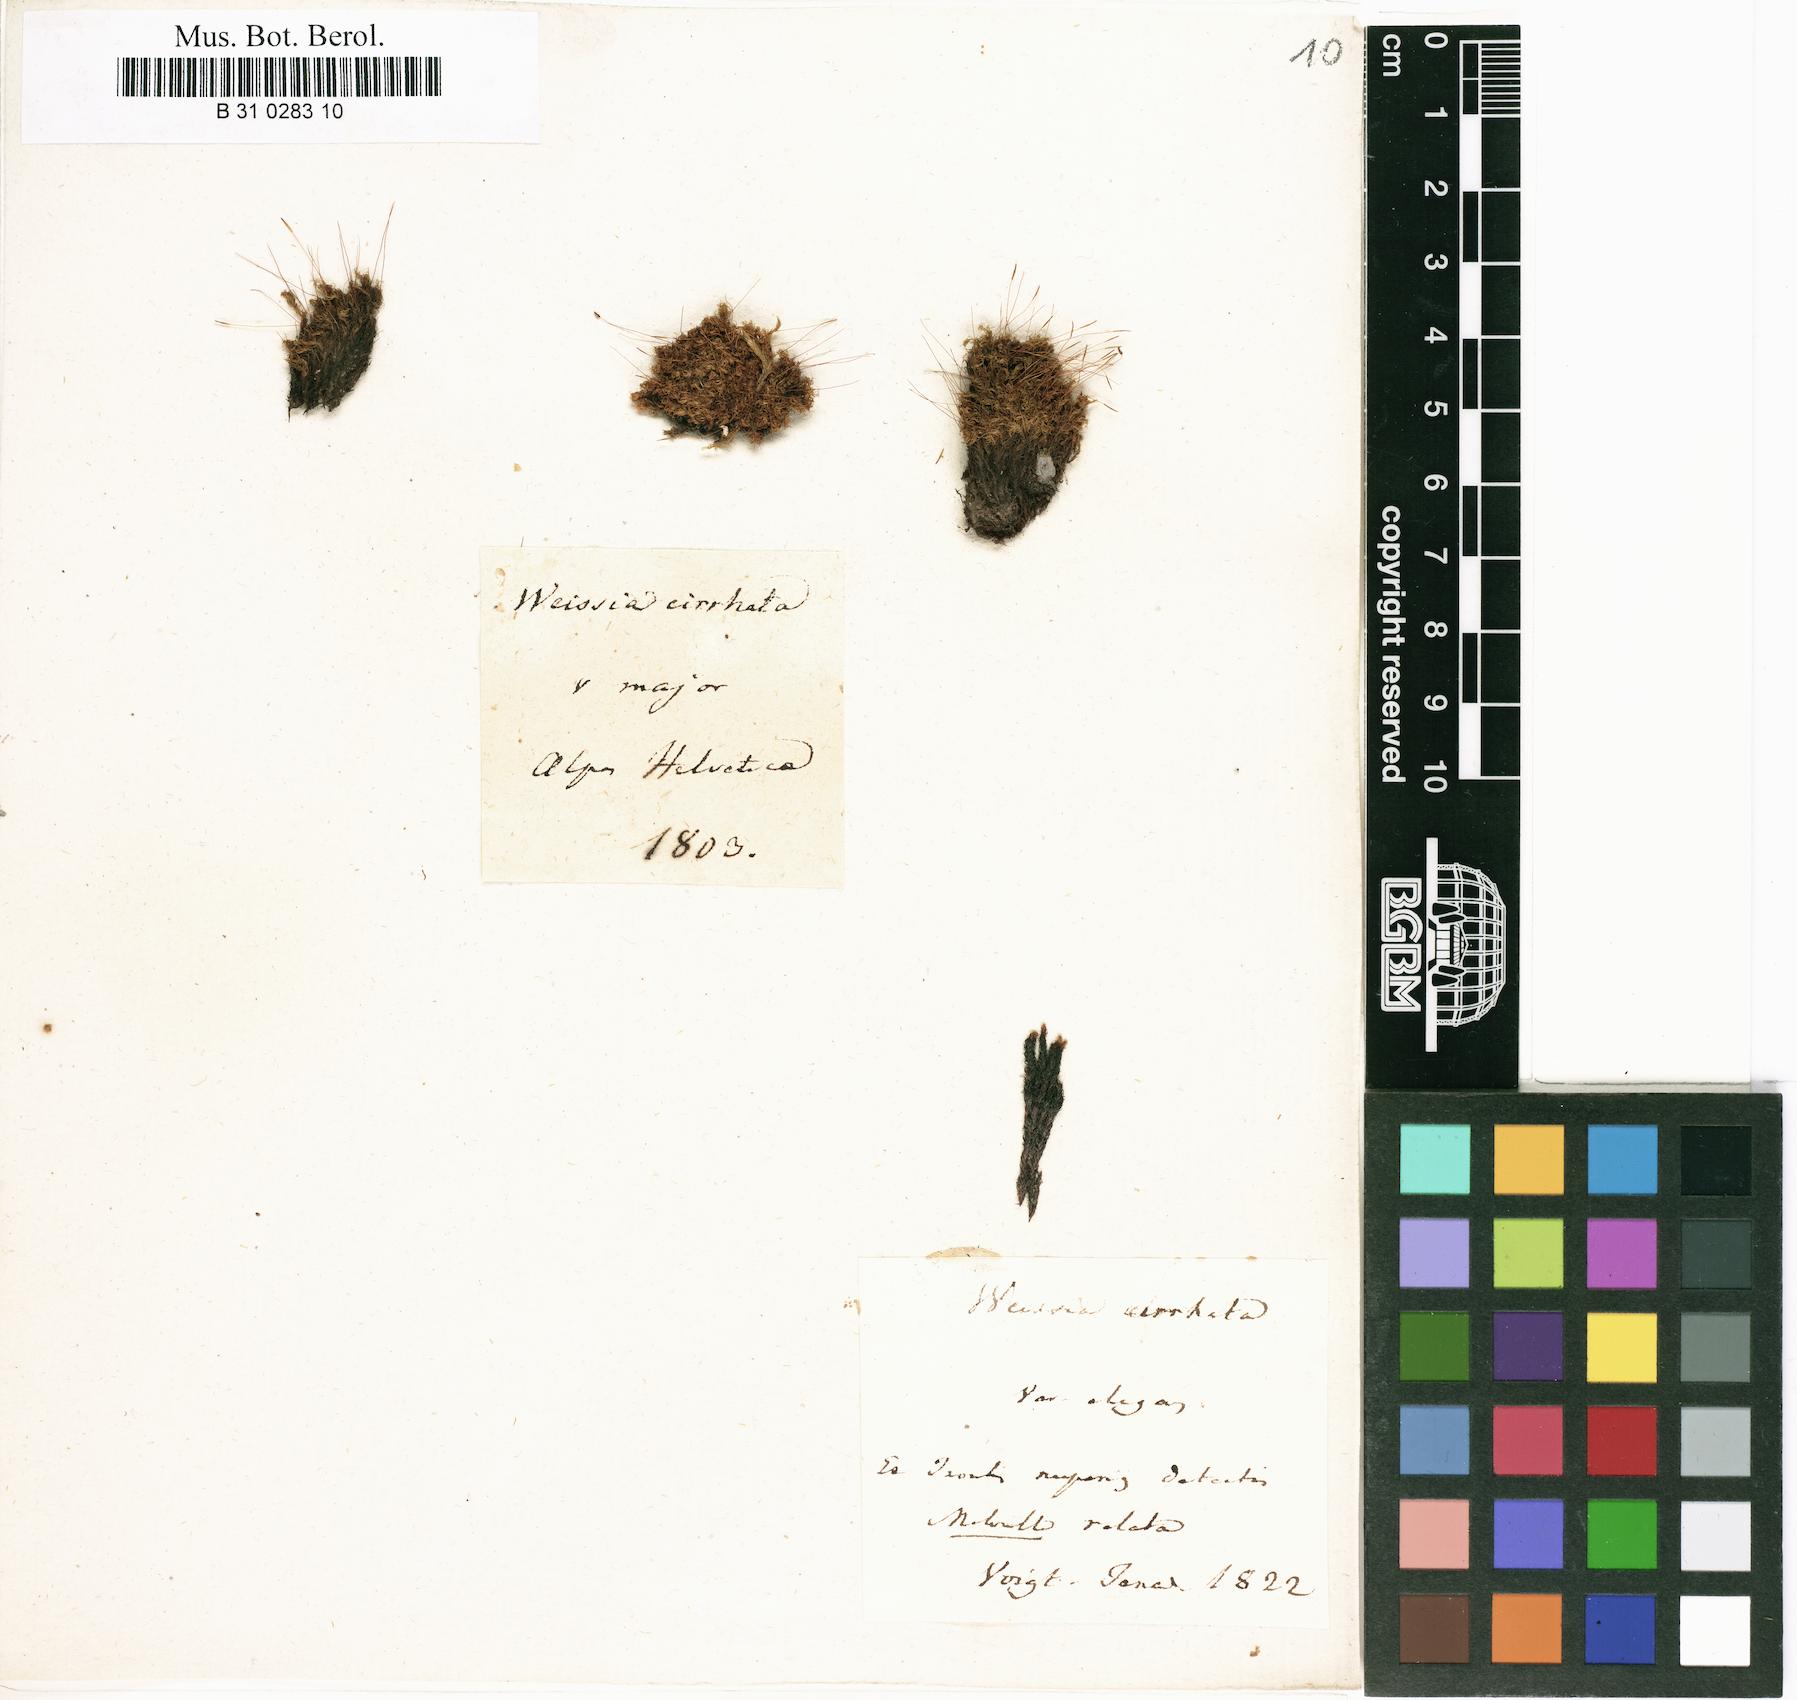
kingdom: Plantae
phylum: Bryophyta
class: Bryopsida
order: Dicranales
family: Rhabdoweisiaceae
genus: Dicranoweisia
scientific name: Dicranoweisia cirrata
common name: Common pincushion
